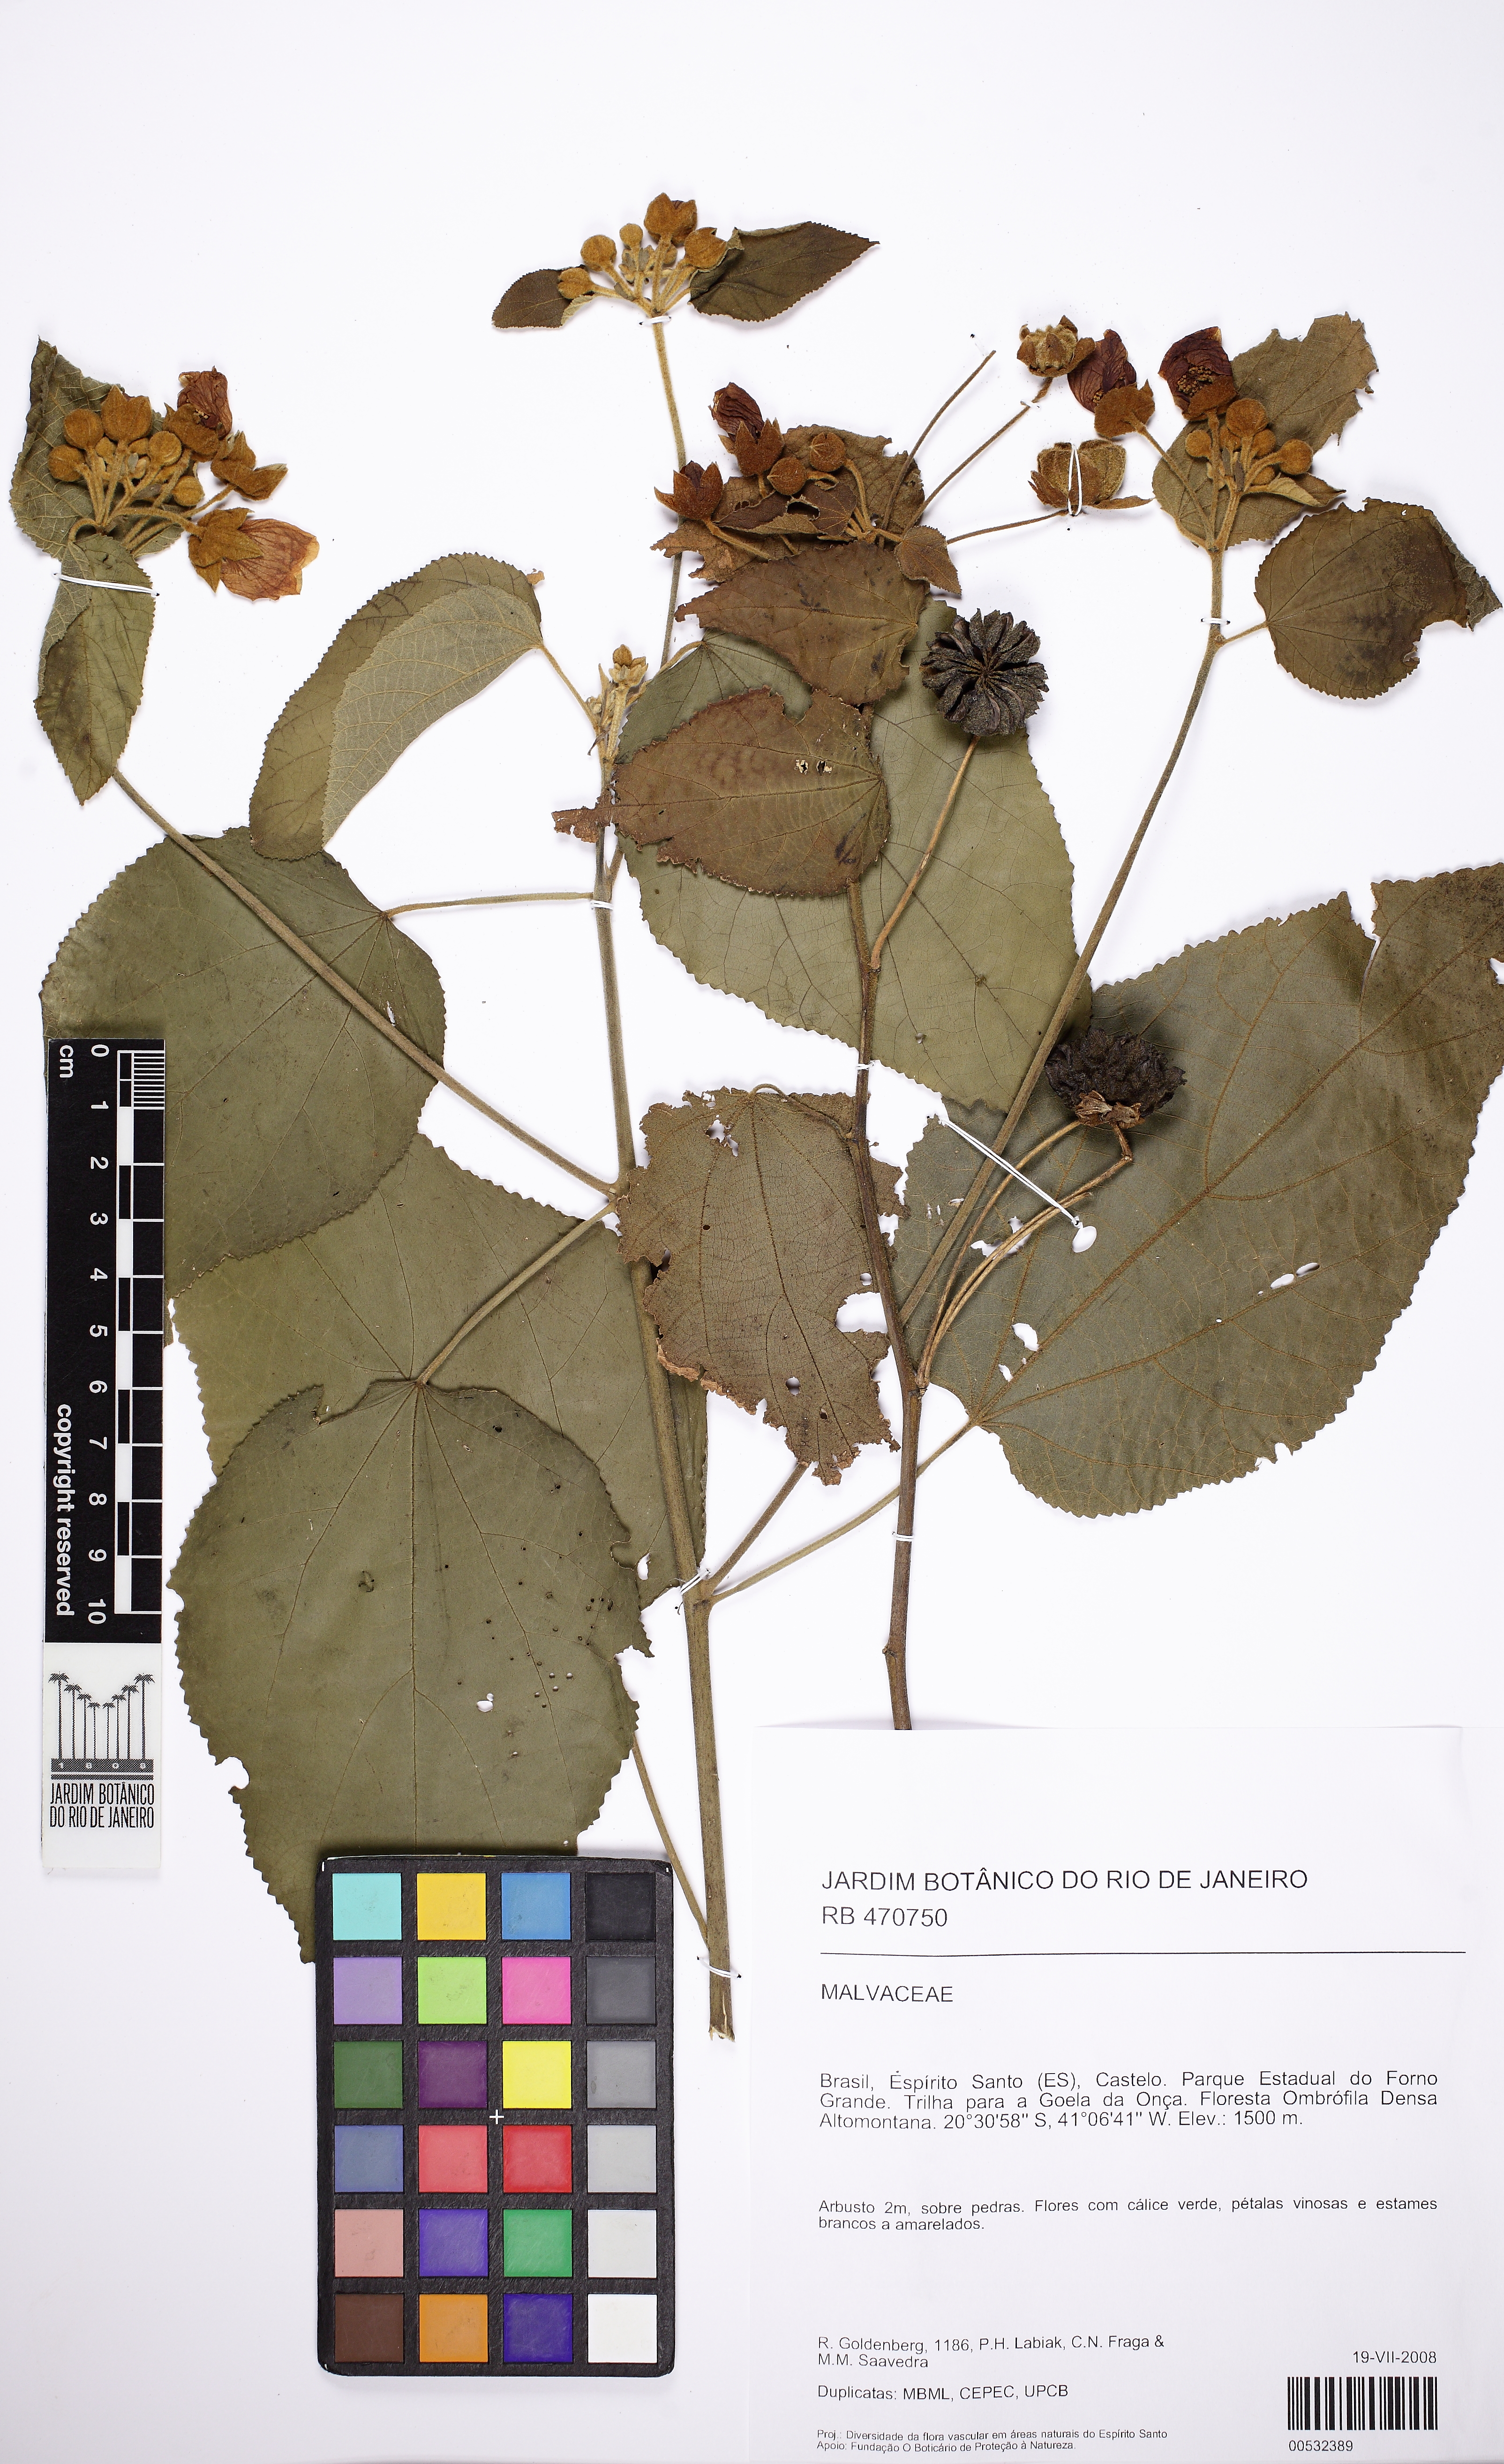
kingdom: Plantae
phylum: Tracheophyta
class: Magnoliopsida
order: Malvales
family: Malvaceae
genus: Callianthe
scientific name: Callianthe rufinerva
